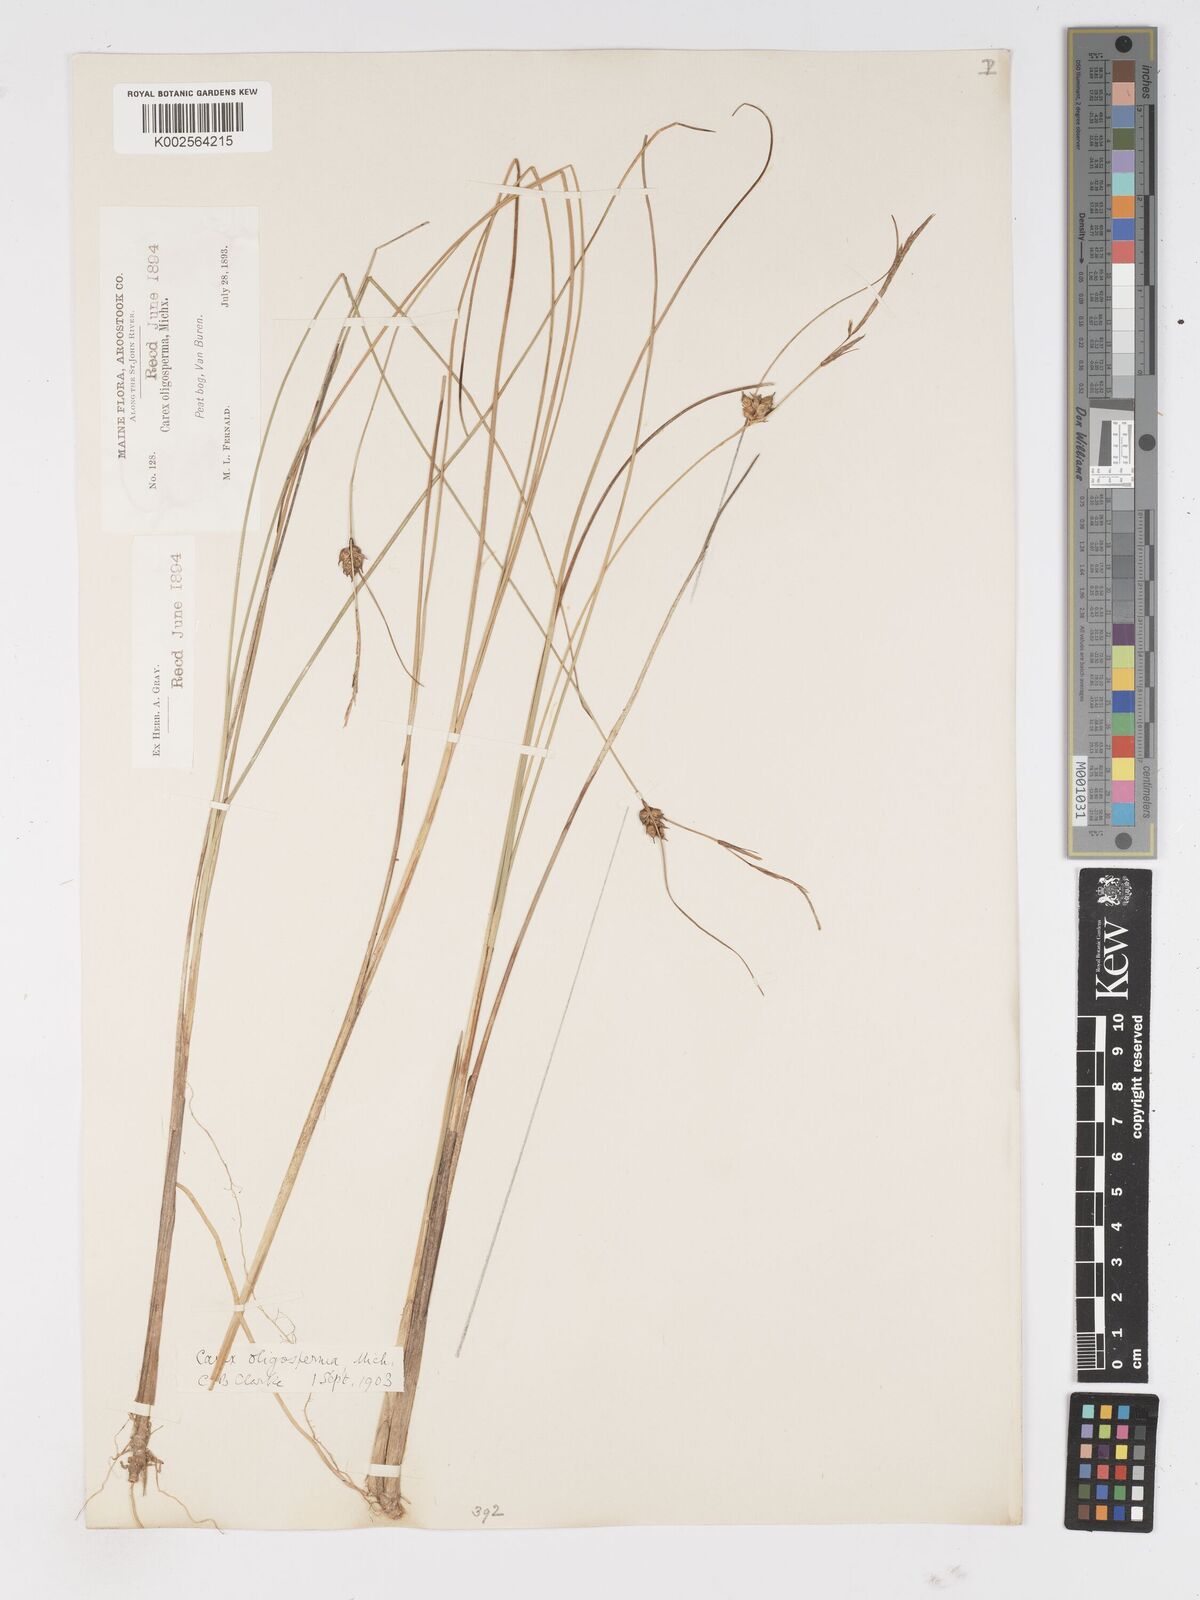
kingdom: Plantae
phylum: Tracheophyta
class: Liliopsida
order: Poales
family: Cyperaceae
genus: Carex
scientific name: Carex oligosperma
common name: Few-seed sedge
